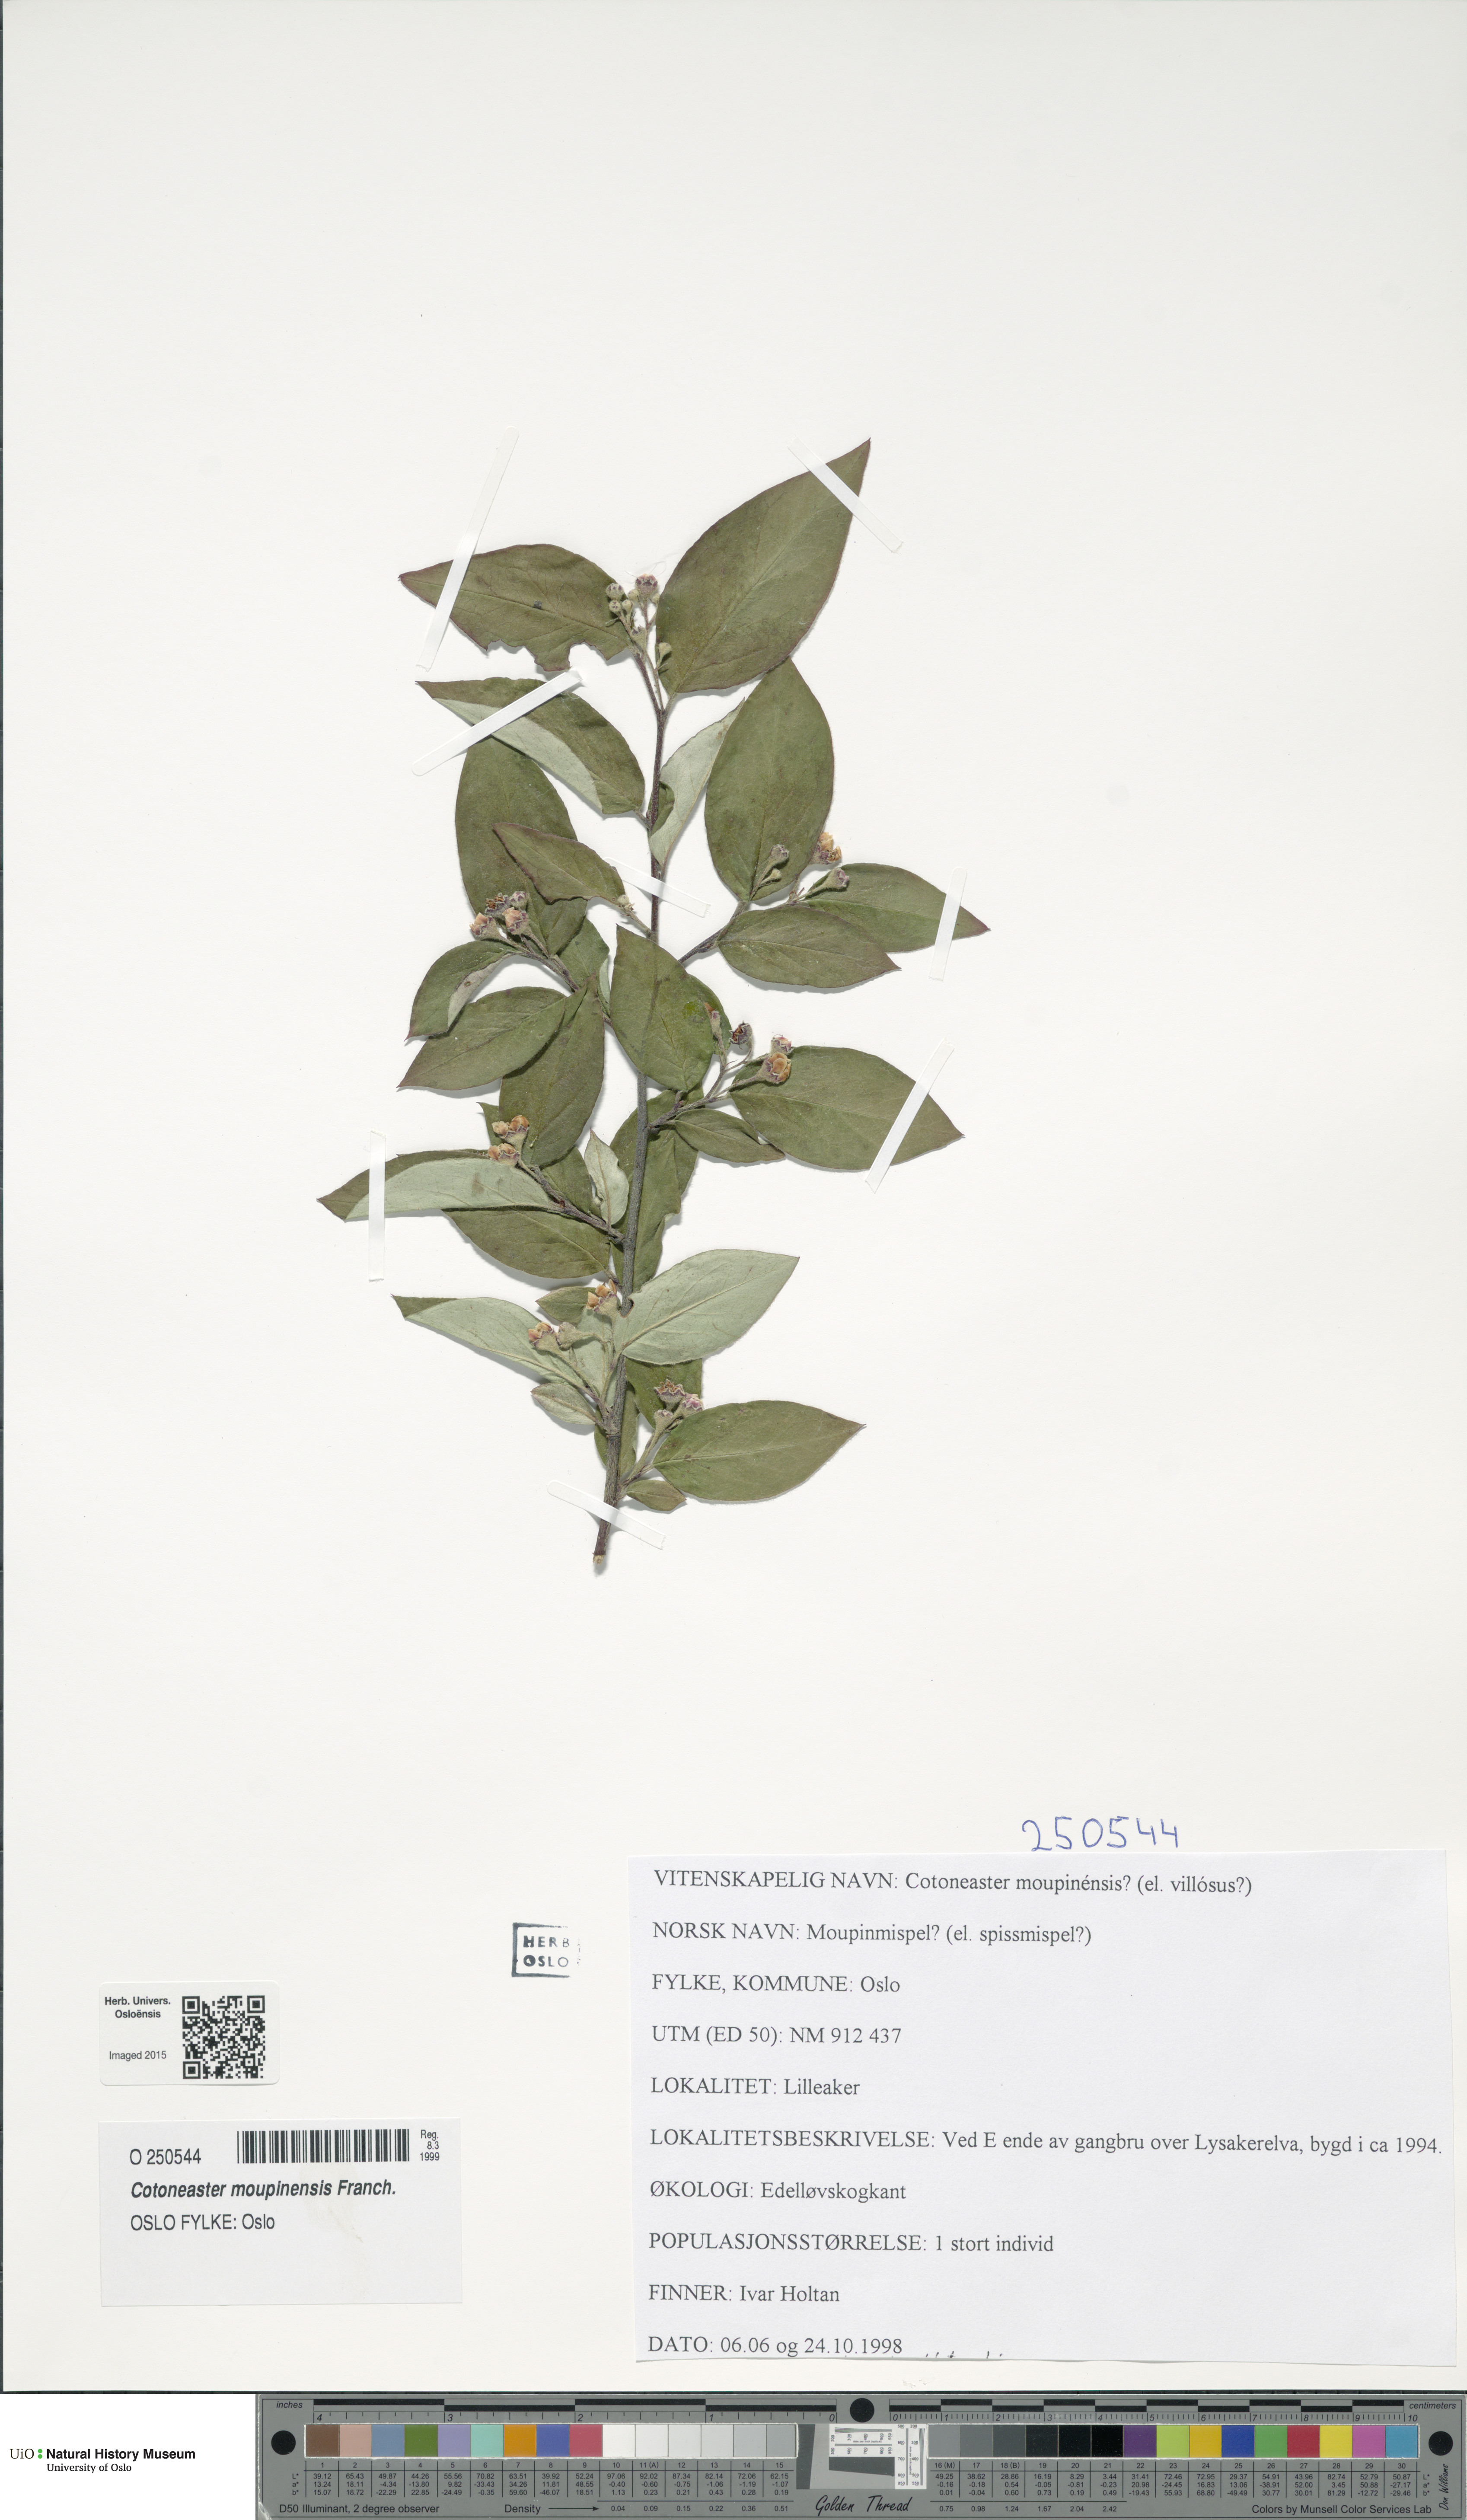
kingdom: Plantae
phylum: Tracheophyta
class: Magnoliopsida
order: Rosales
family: Rosaceae
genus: Cotoneaster
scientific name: Cotoneaster moupinensis
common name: Moupin cotoneaster
